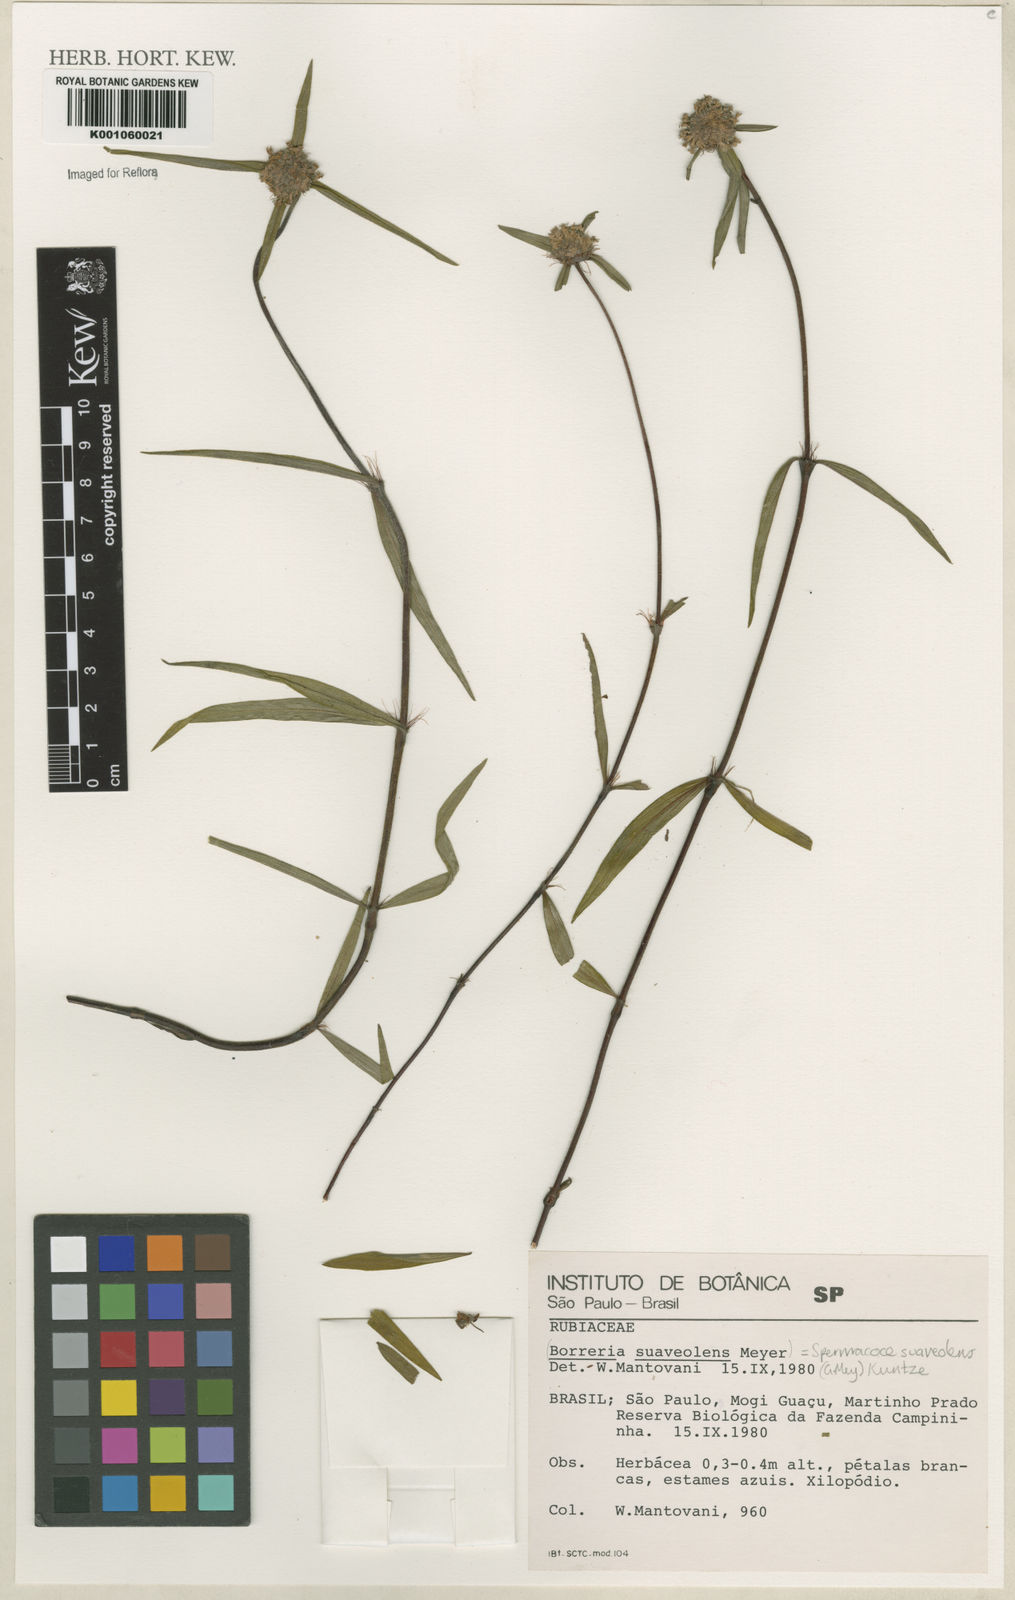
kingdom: Plantae
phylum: Tracheophyta
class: Magnoliopsida
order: Gentianales
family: Rubiaceae
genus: Spermacoce
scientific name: Spermacoce suaveolens
